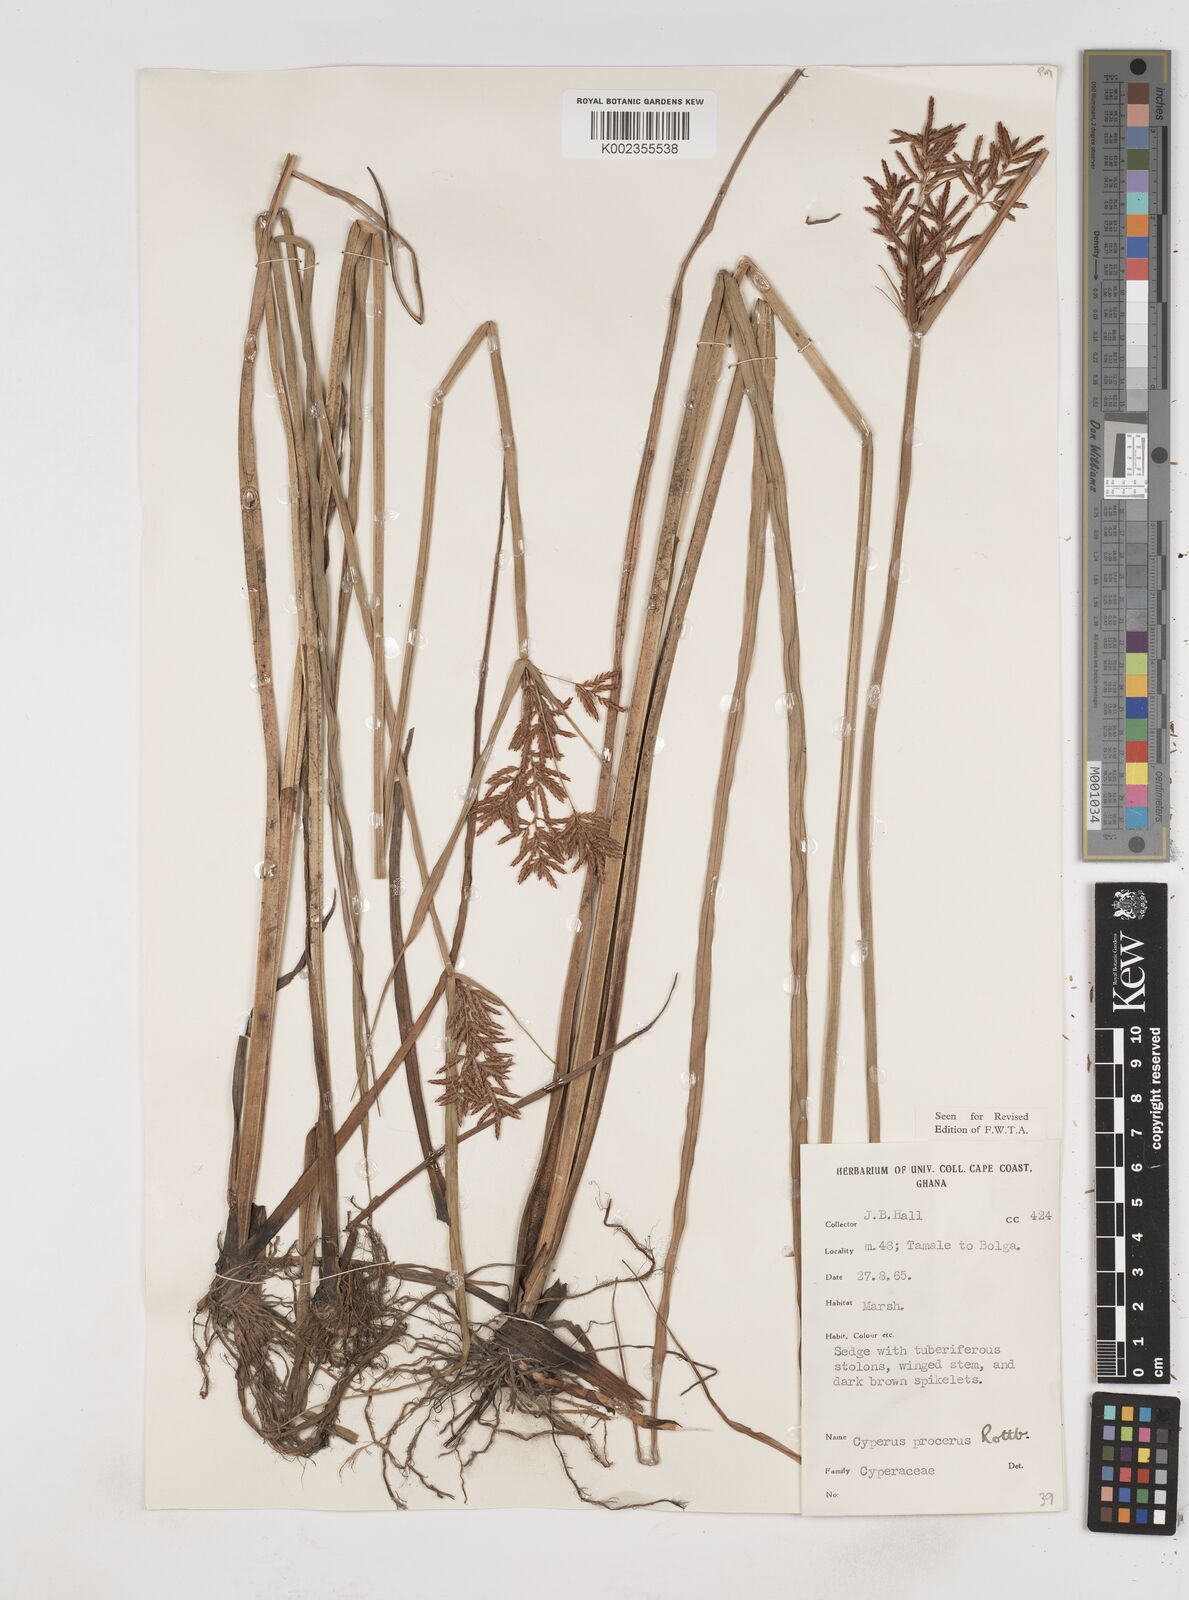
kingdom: Plantae
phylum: Tracheophyta
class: Liliopsida
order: Poales
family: Cyperaceae
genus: Cyperus
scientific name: Cyperus procerus
